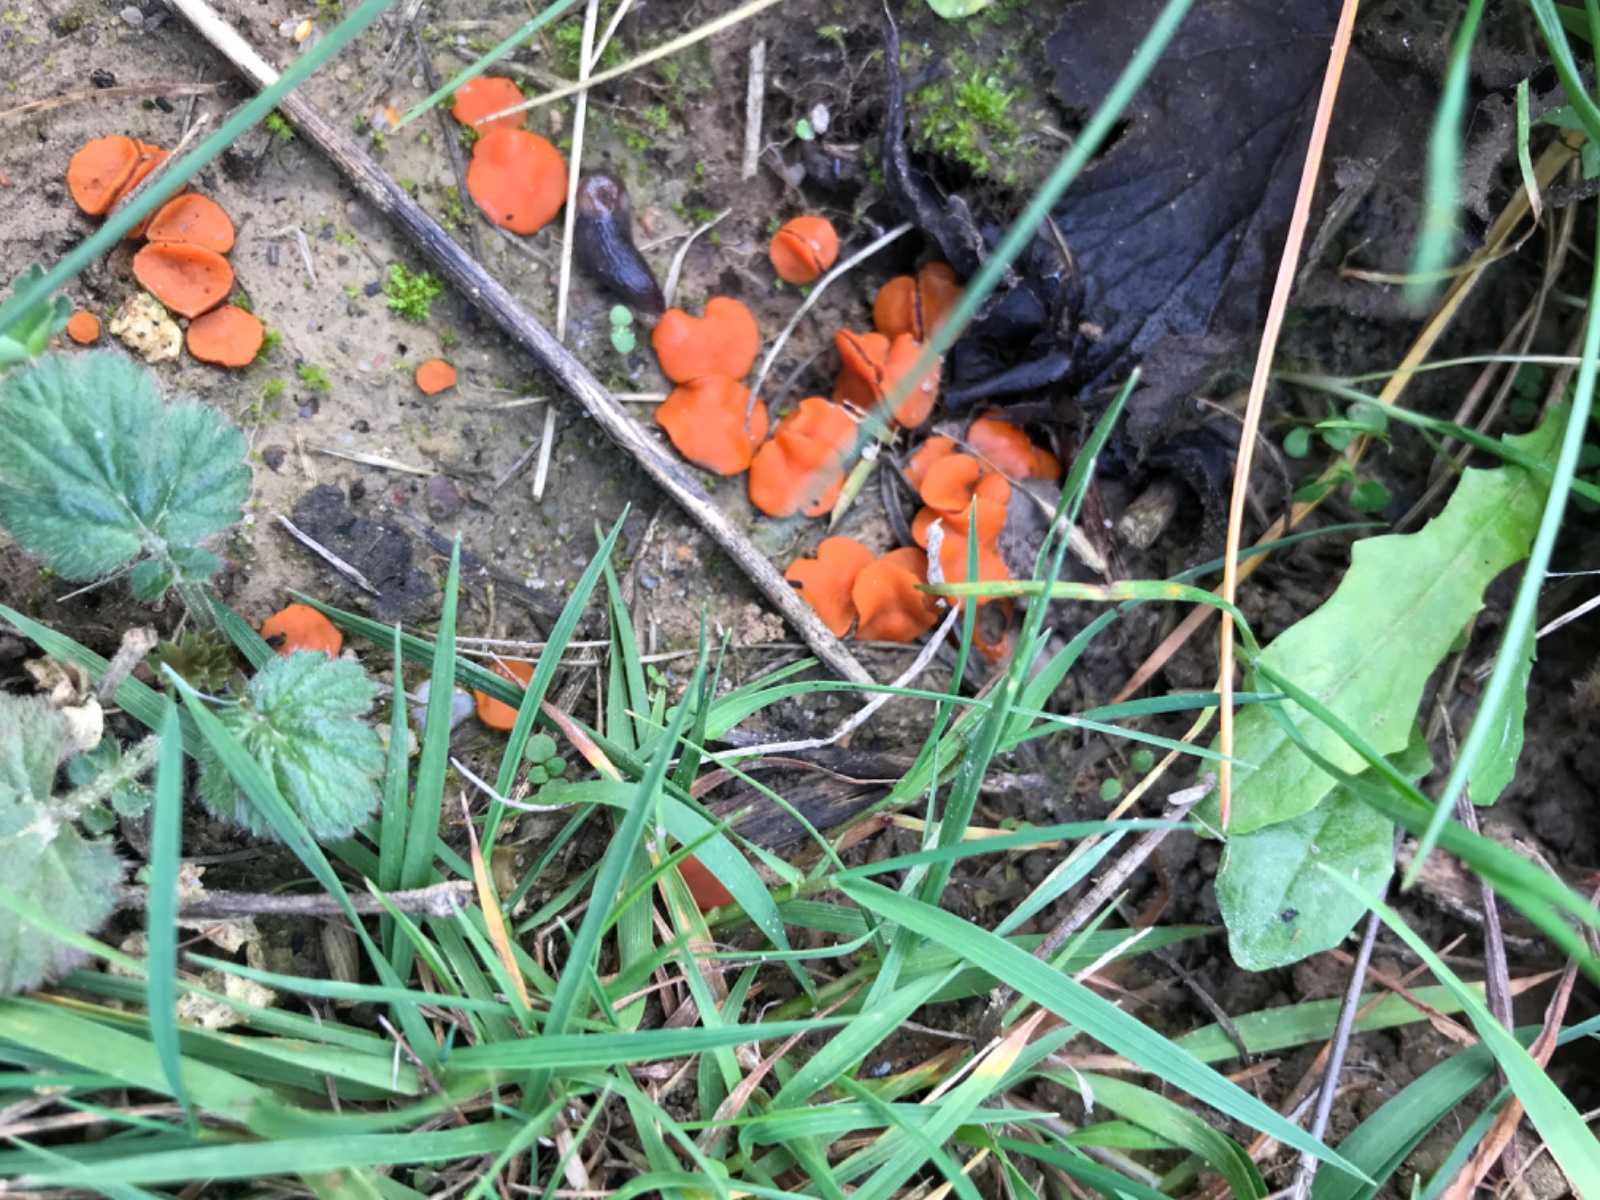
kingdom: Fungi
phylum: Ascomycota
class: Pezizomycetes
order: Pezizales
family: Pyronemataceae
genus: Melastiza
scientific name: Melastiza cornubiensis
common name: mørkrandet rødbæger
